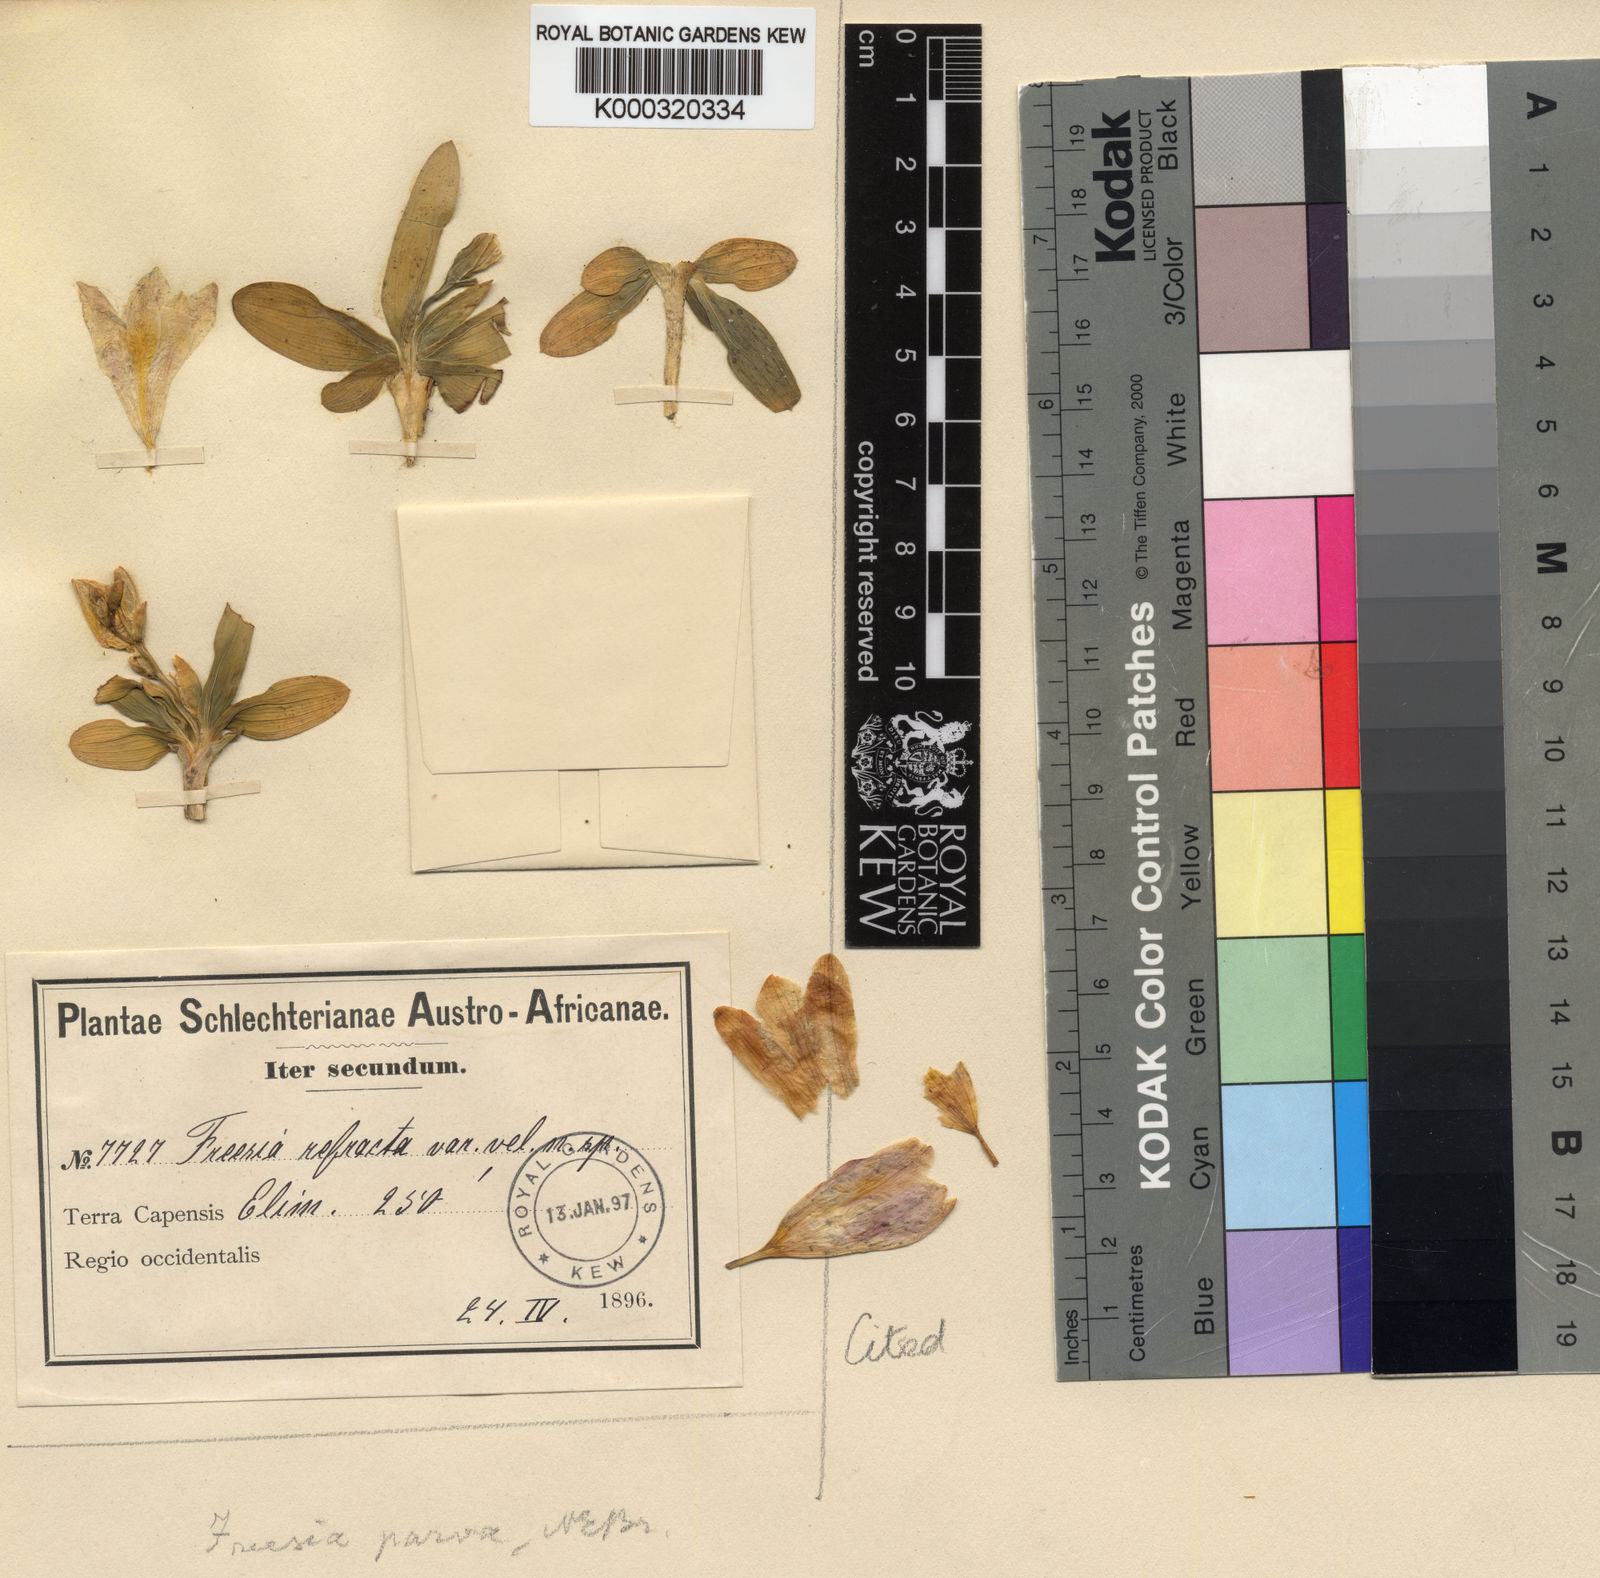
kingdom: Plantae
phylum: Tracheophyta
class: Liliopsida
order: Asparagales
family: Iridaceae
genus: Freesia
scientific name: Freesia caryophyllacea
